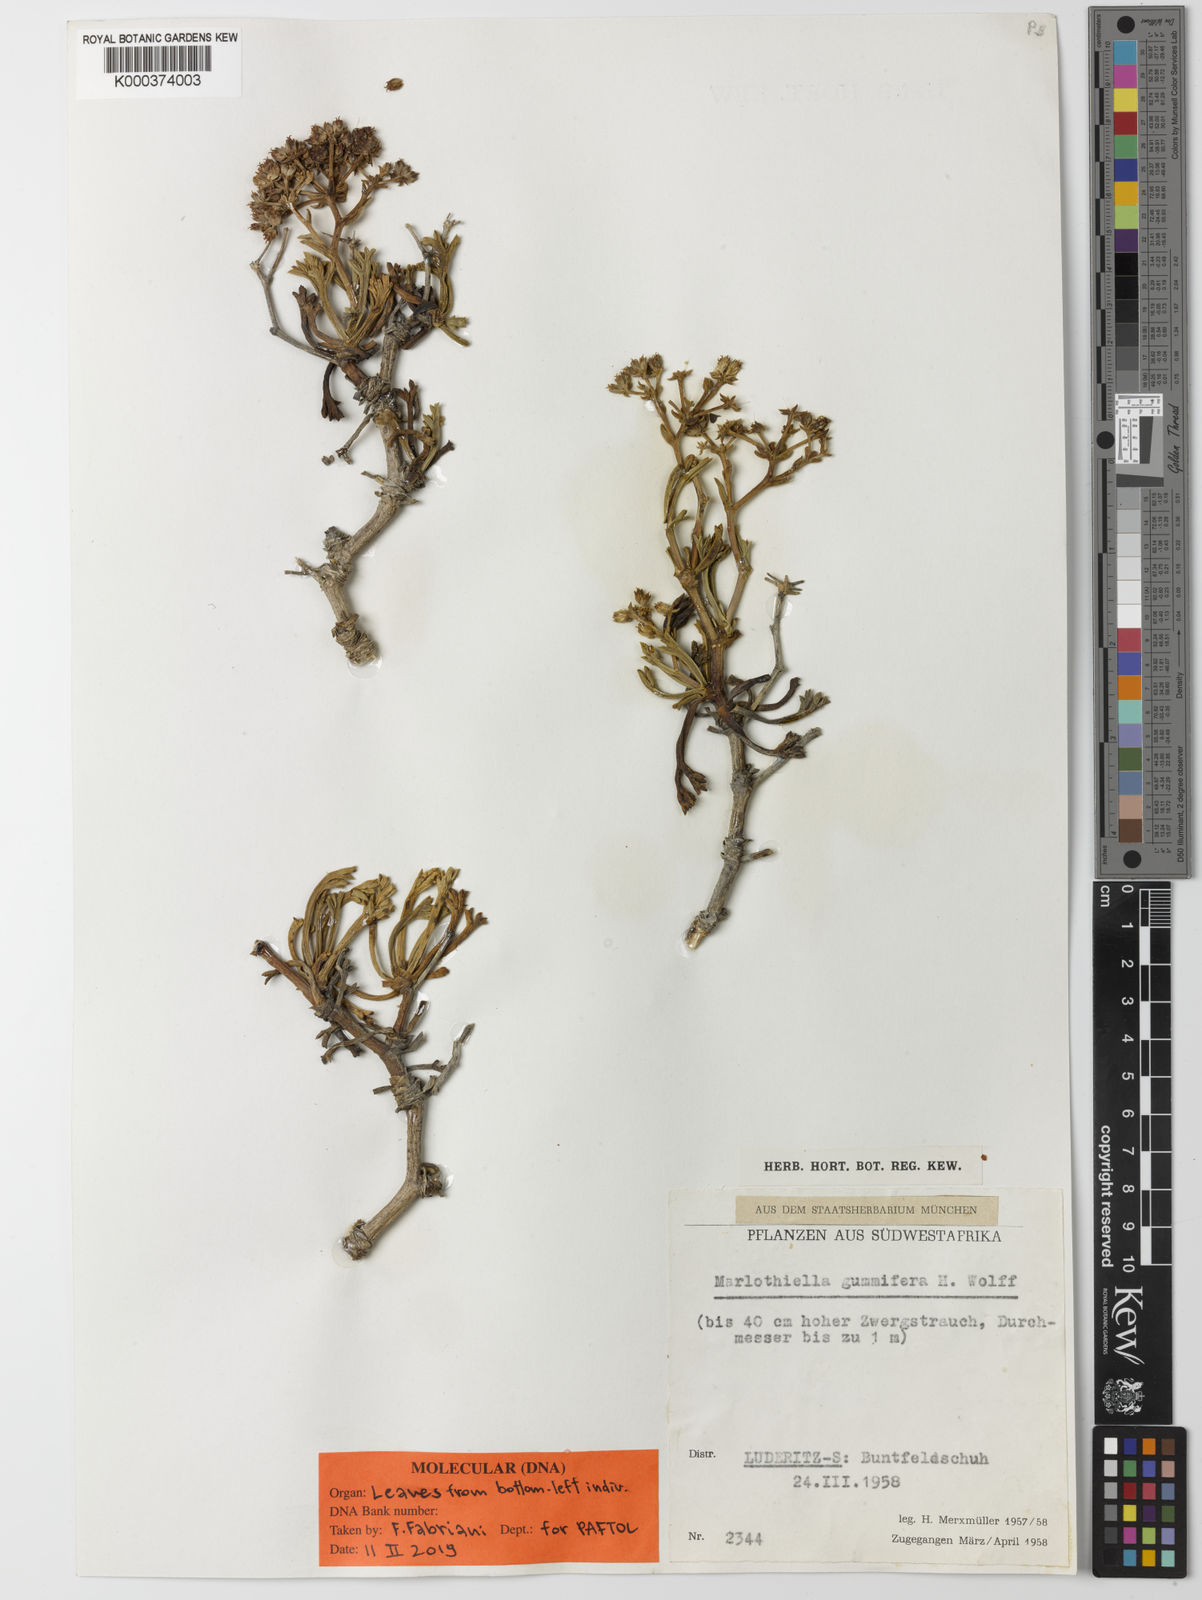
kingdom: Plantae
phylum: Tracheophyta
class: Magnoliopsida
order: Apiales
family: Apiaceae
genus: Marlothiella
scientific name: Marlothiella gummifera
